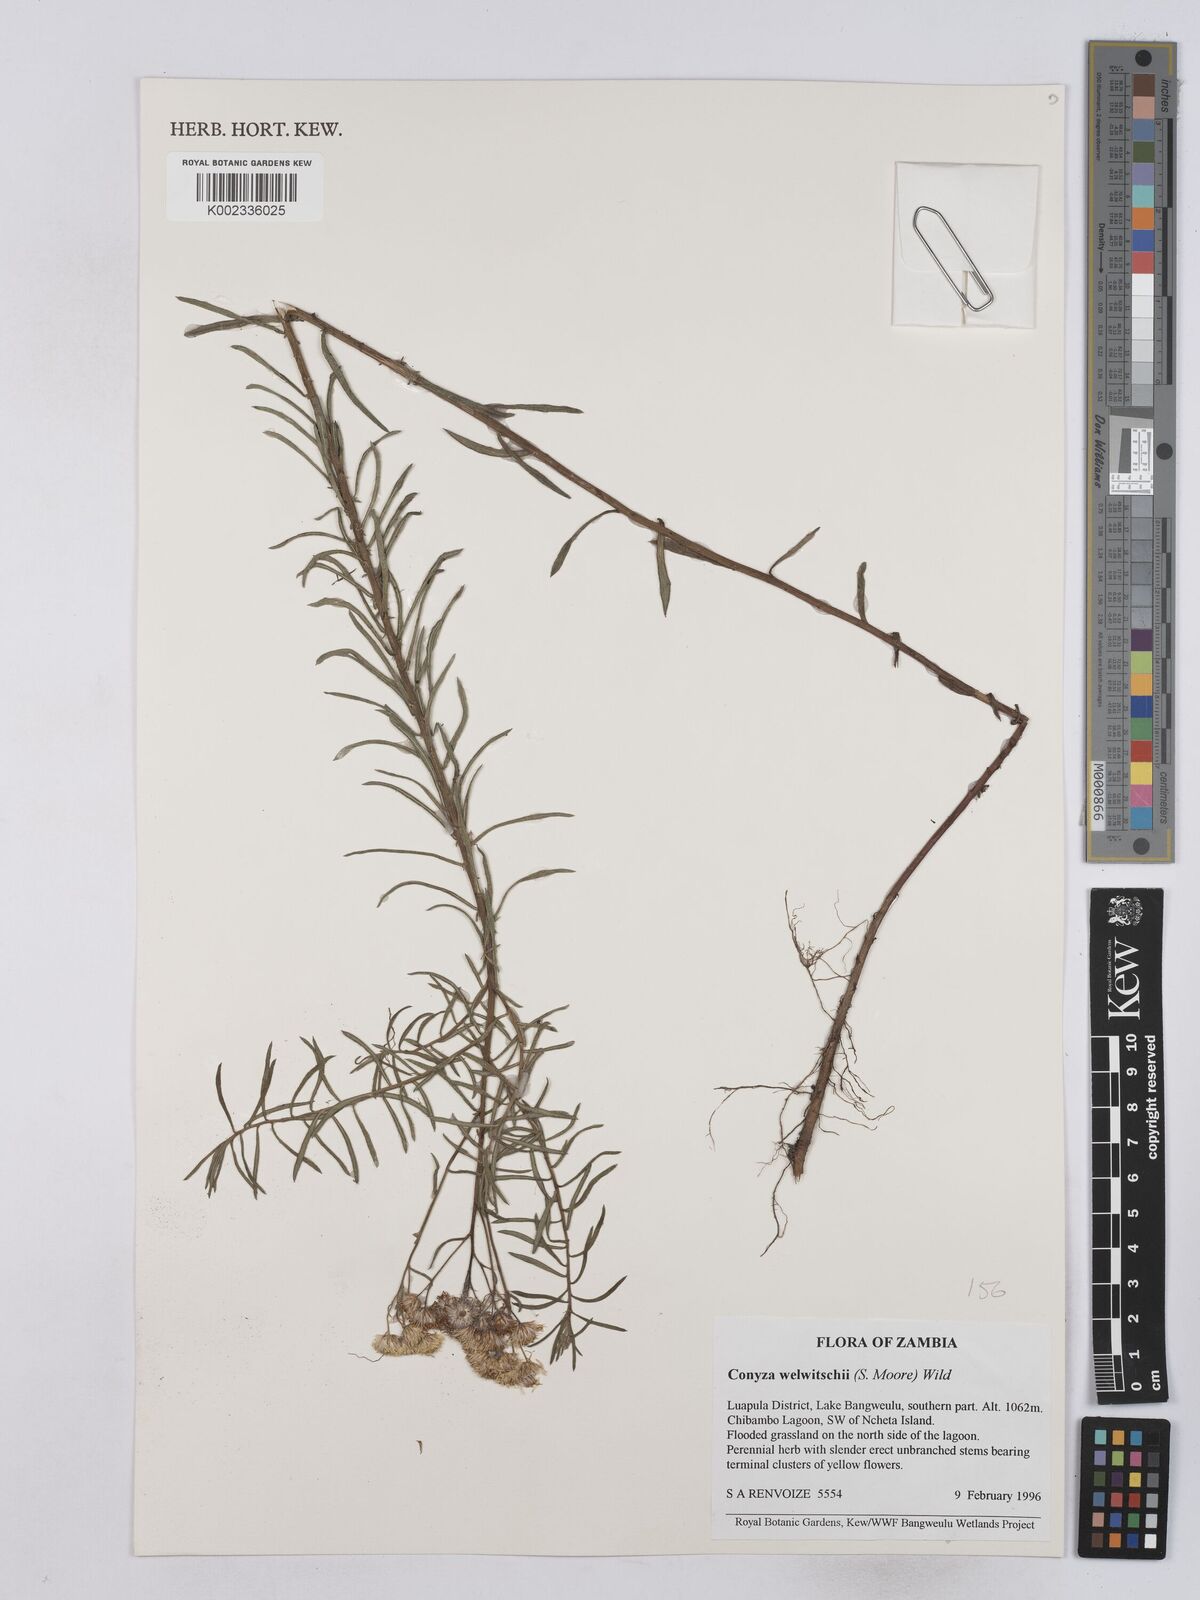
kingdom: Plantae
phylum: Tracheophyta
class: Magnoliopsida
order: Asterales
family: Asteraceae
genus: Nidorella
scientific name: Nidorella welwitschii
